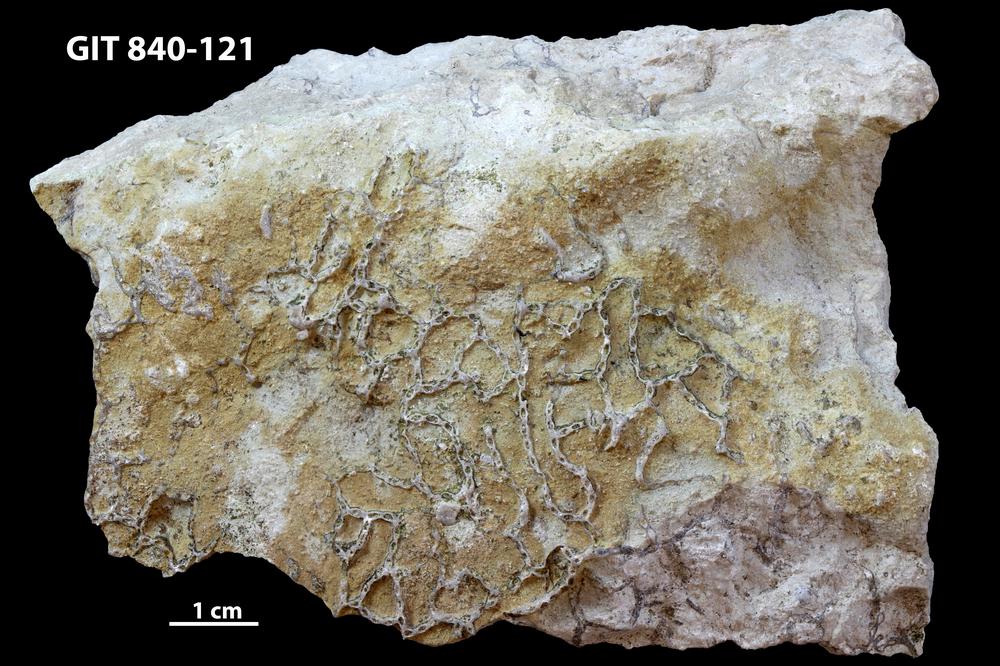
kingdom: Animalia
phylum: Cnidaria
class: Anthozoa
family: Cateniporidae
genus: Catenipora
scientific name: Catenipora
